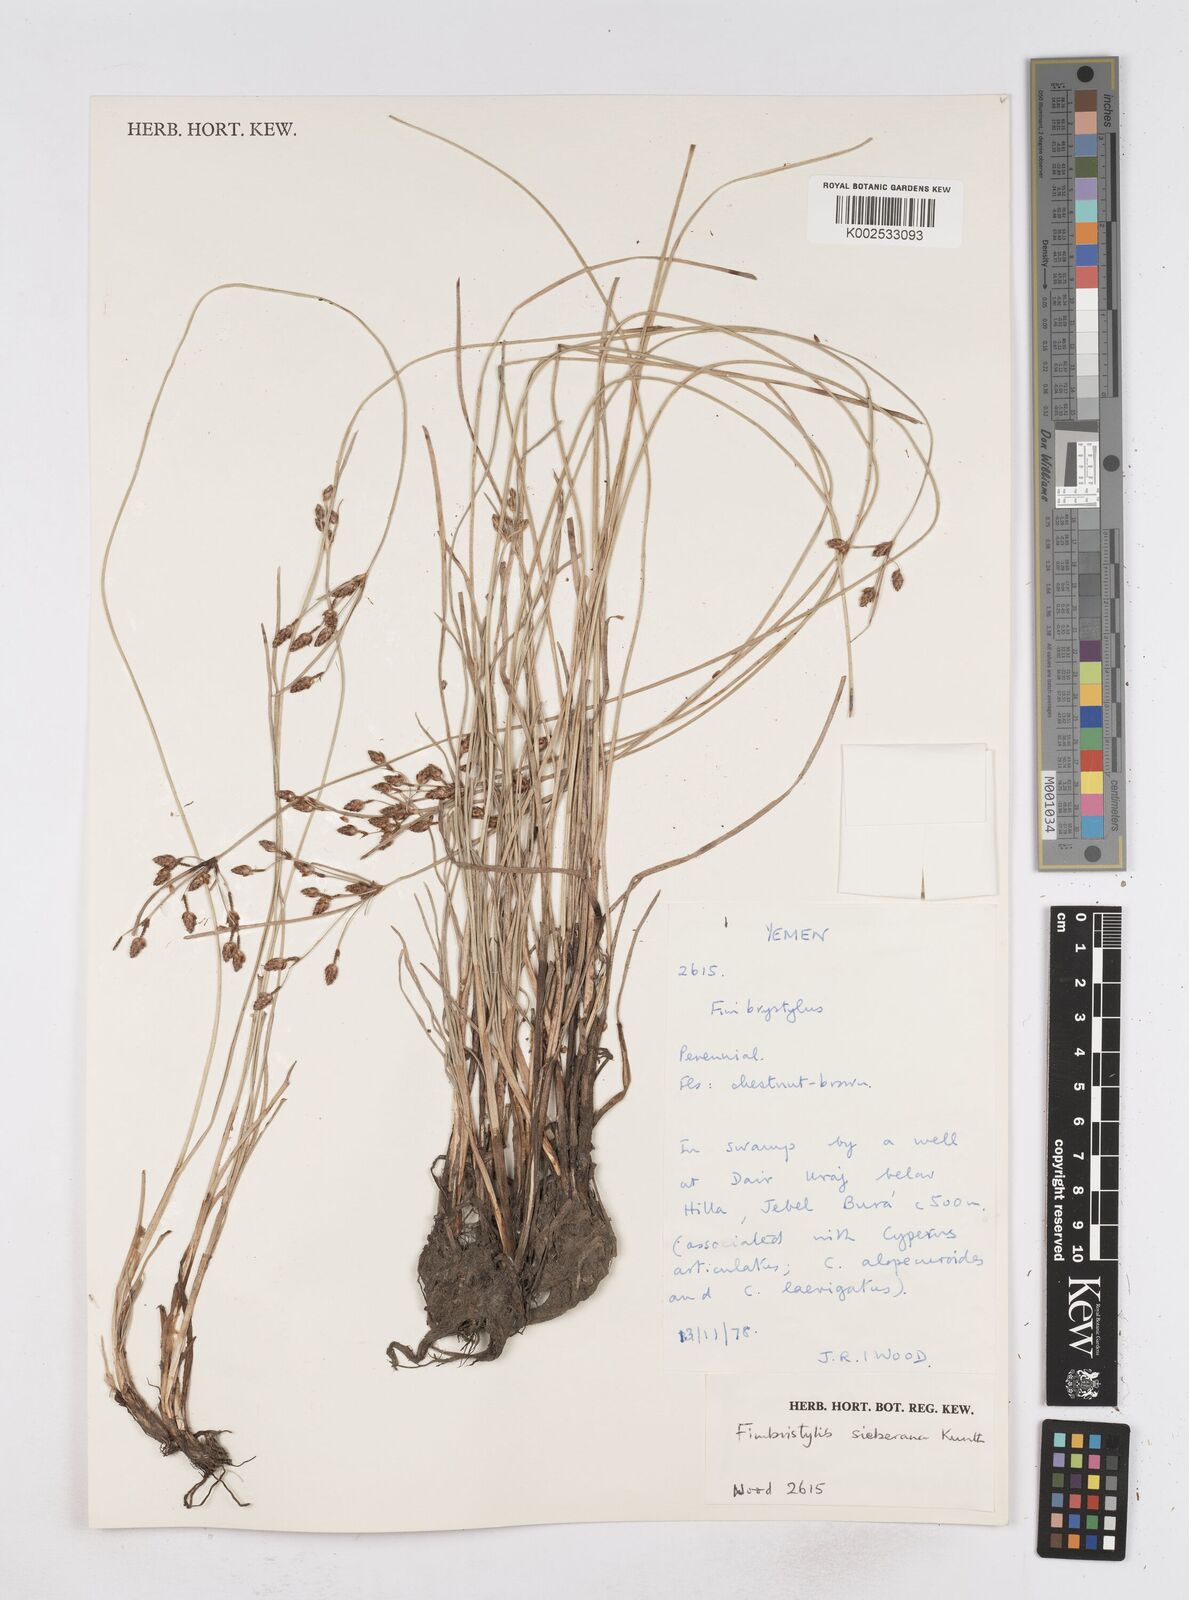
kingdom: Plantae
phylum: Tracheophyta
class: Liliopsida
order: Poales
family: Cyperaceae
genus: Fimbristylis
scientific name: Fimbristylis ferruginea
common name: West indian fimbry
